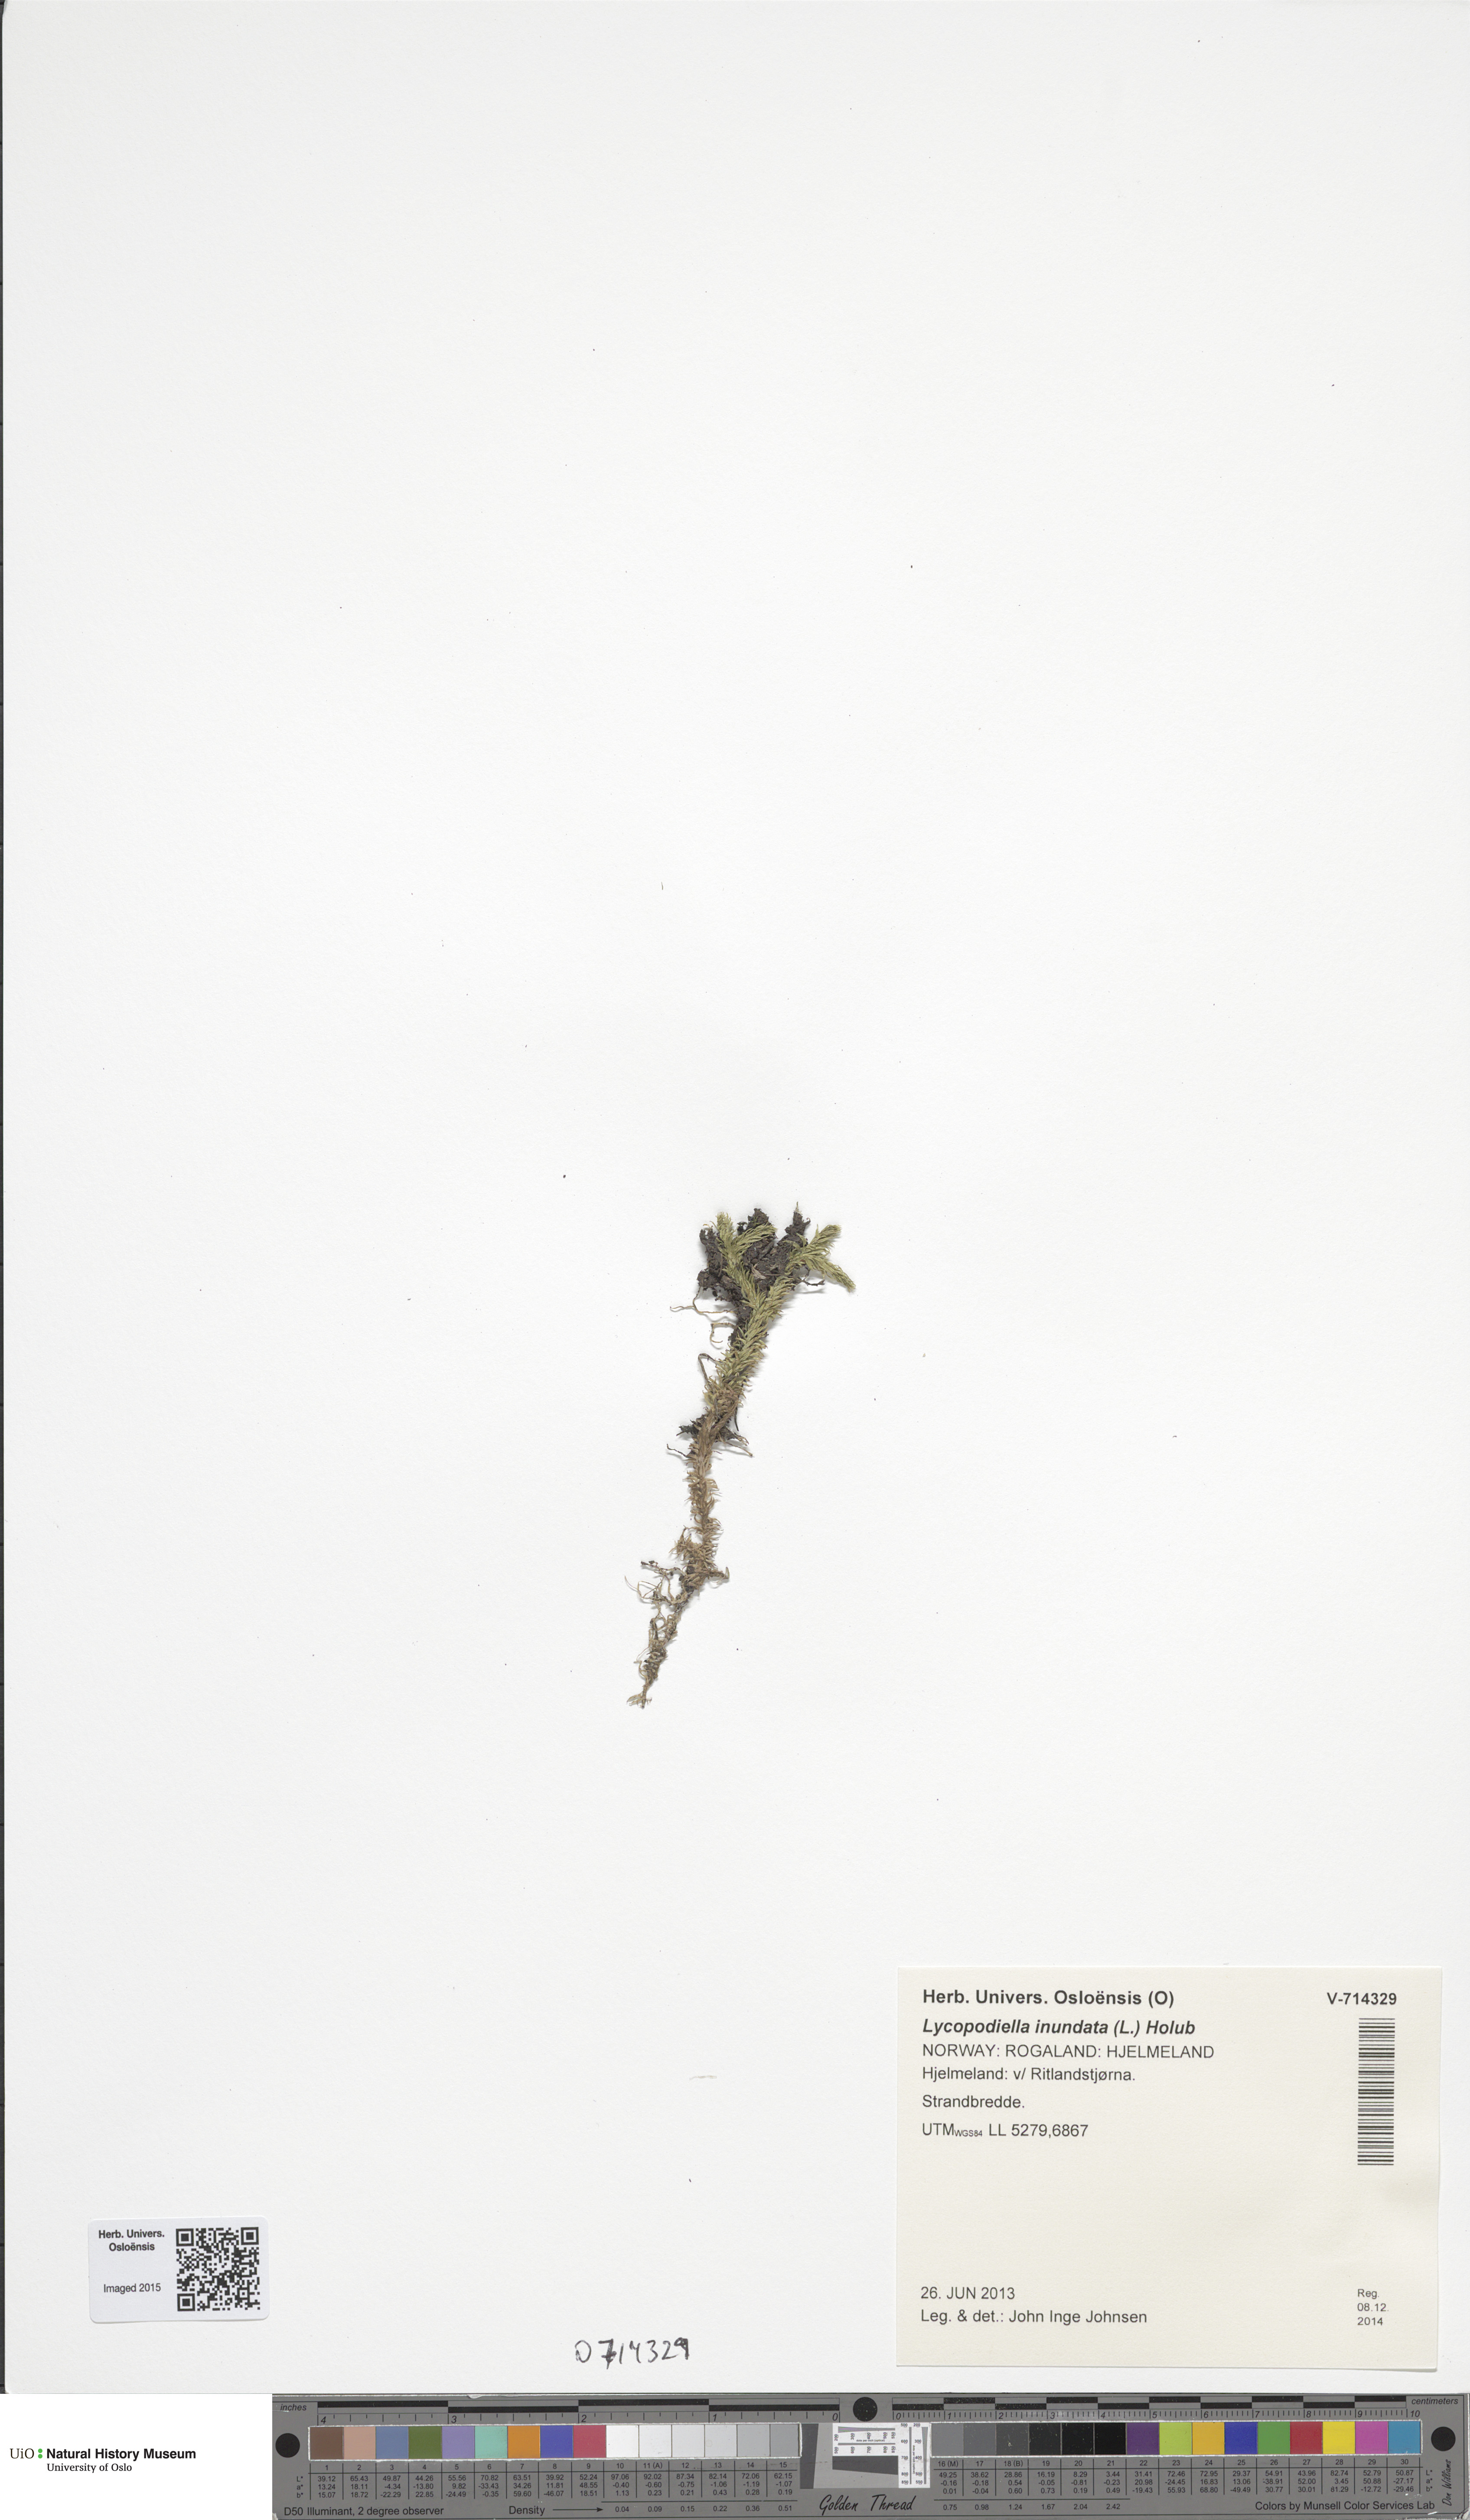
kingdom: Plantae
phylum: Tracheophyta
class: Lycopodiopsida
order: Lycopodiales
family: Lycopodiaceae
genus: Lycopodiella
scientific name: Lycopodiella inundata
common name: Marsh clubmoss
